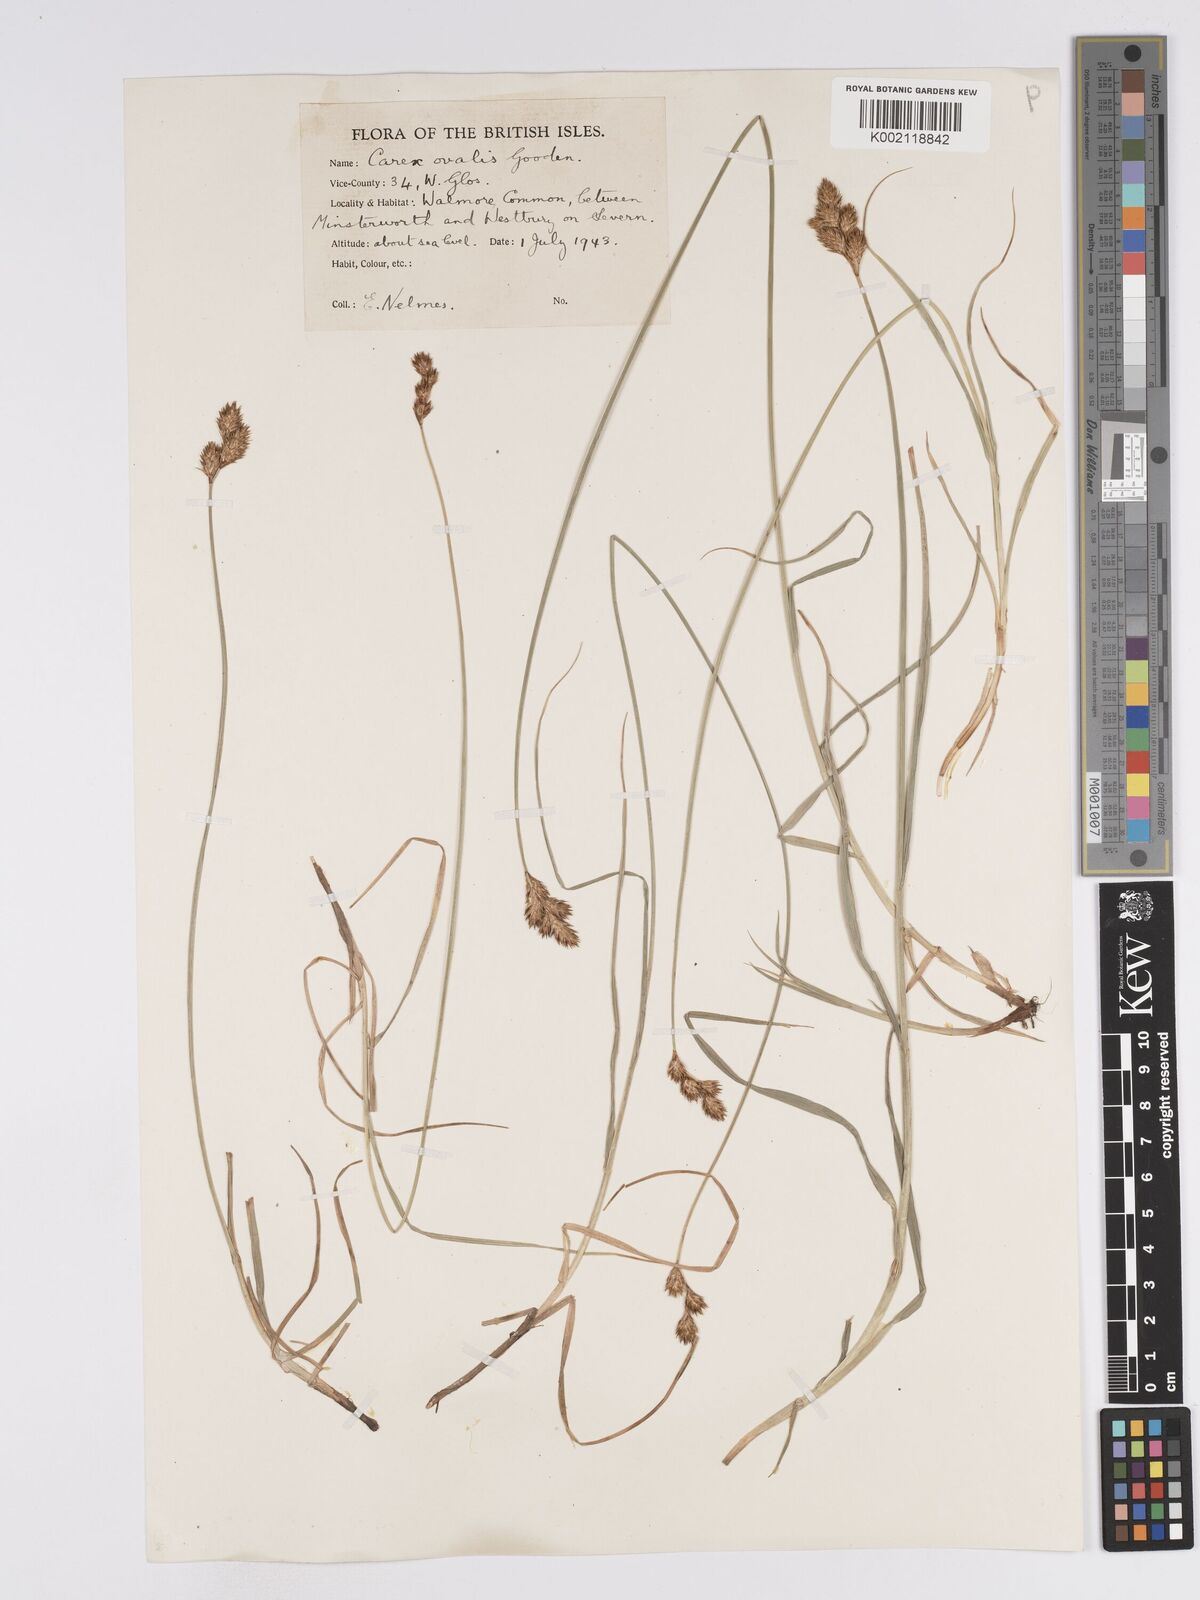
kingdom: Plantae
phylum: Tracheophyta
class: Liliopsida
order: Poales
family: Cyperaceae
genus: Carex
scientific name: Carex leporina
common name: Oval sedge
